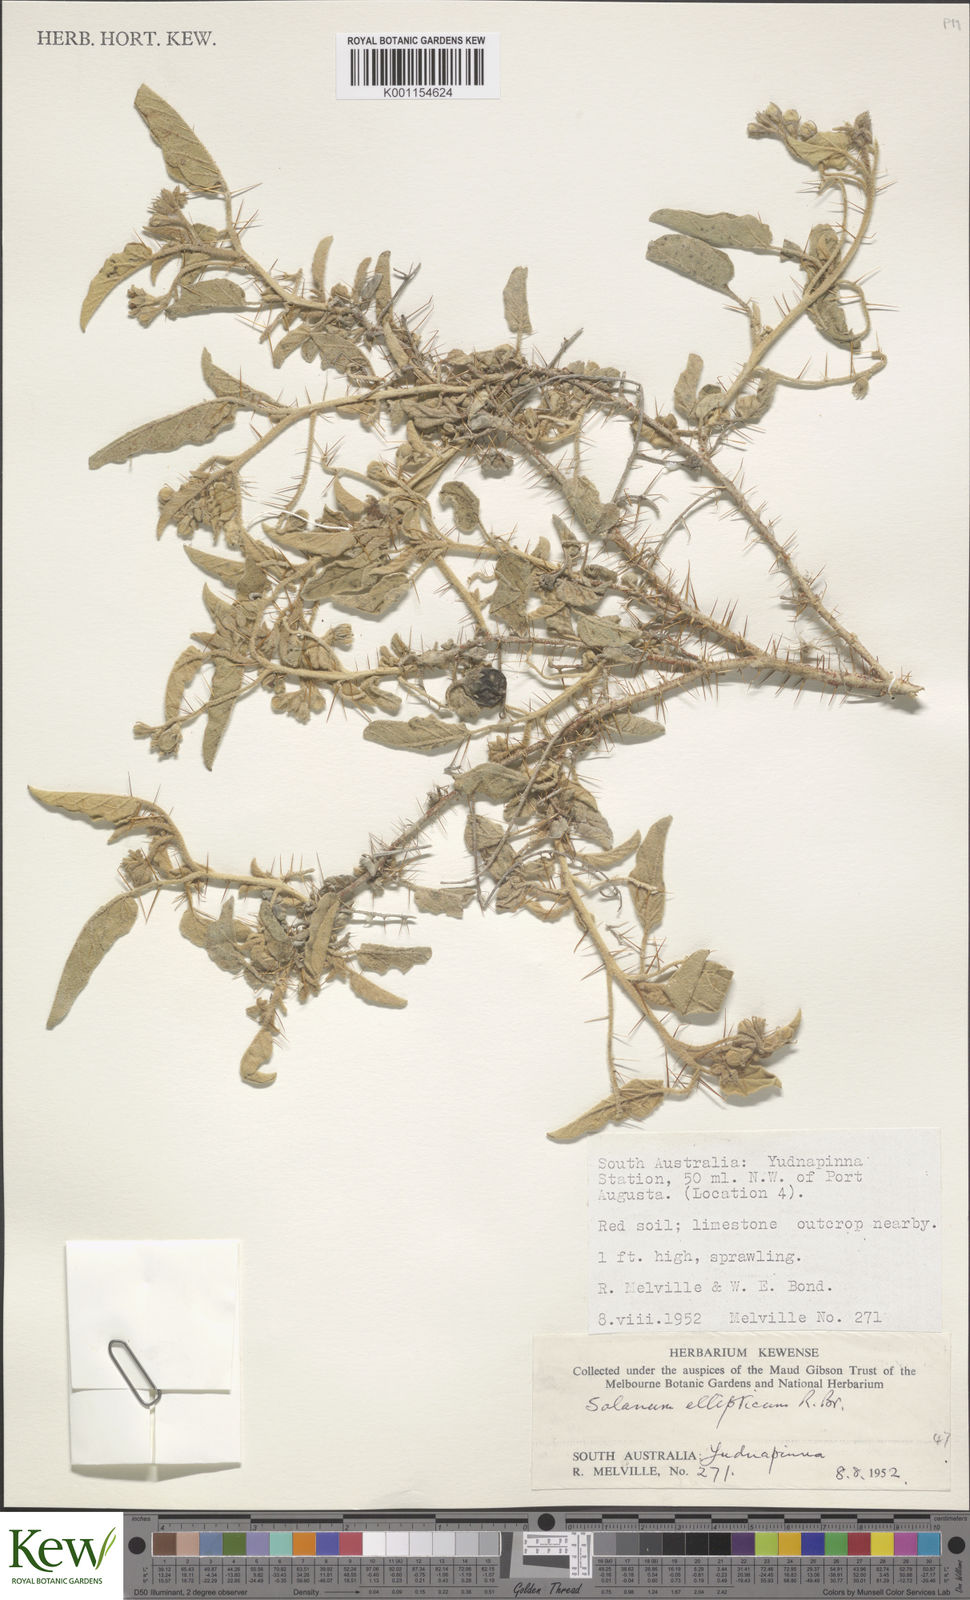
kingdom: Plantae
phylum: Tracheophyta
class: Magnoliopsida
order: Solanales
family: Solanaceae
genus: Solanum
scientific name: Solanum ellipticum
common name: Potato-bush
